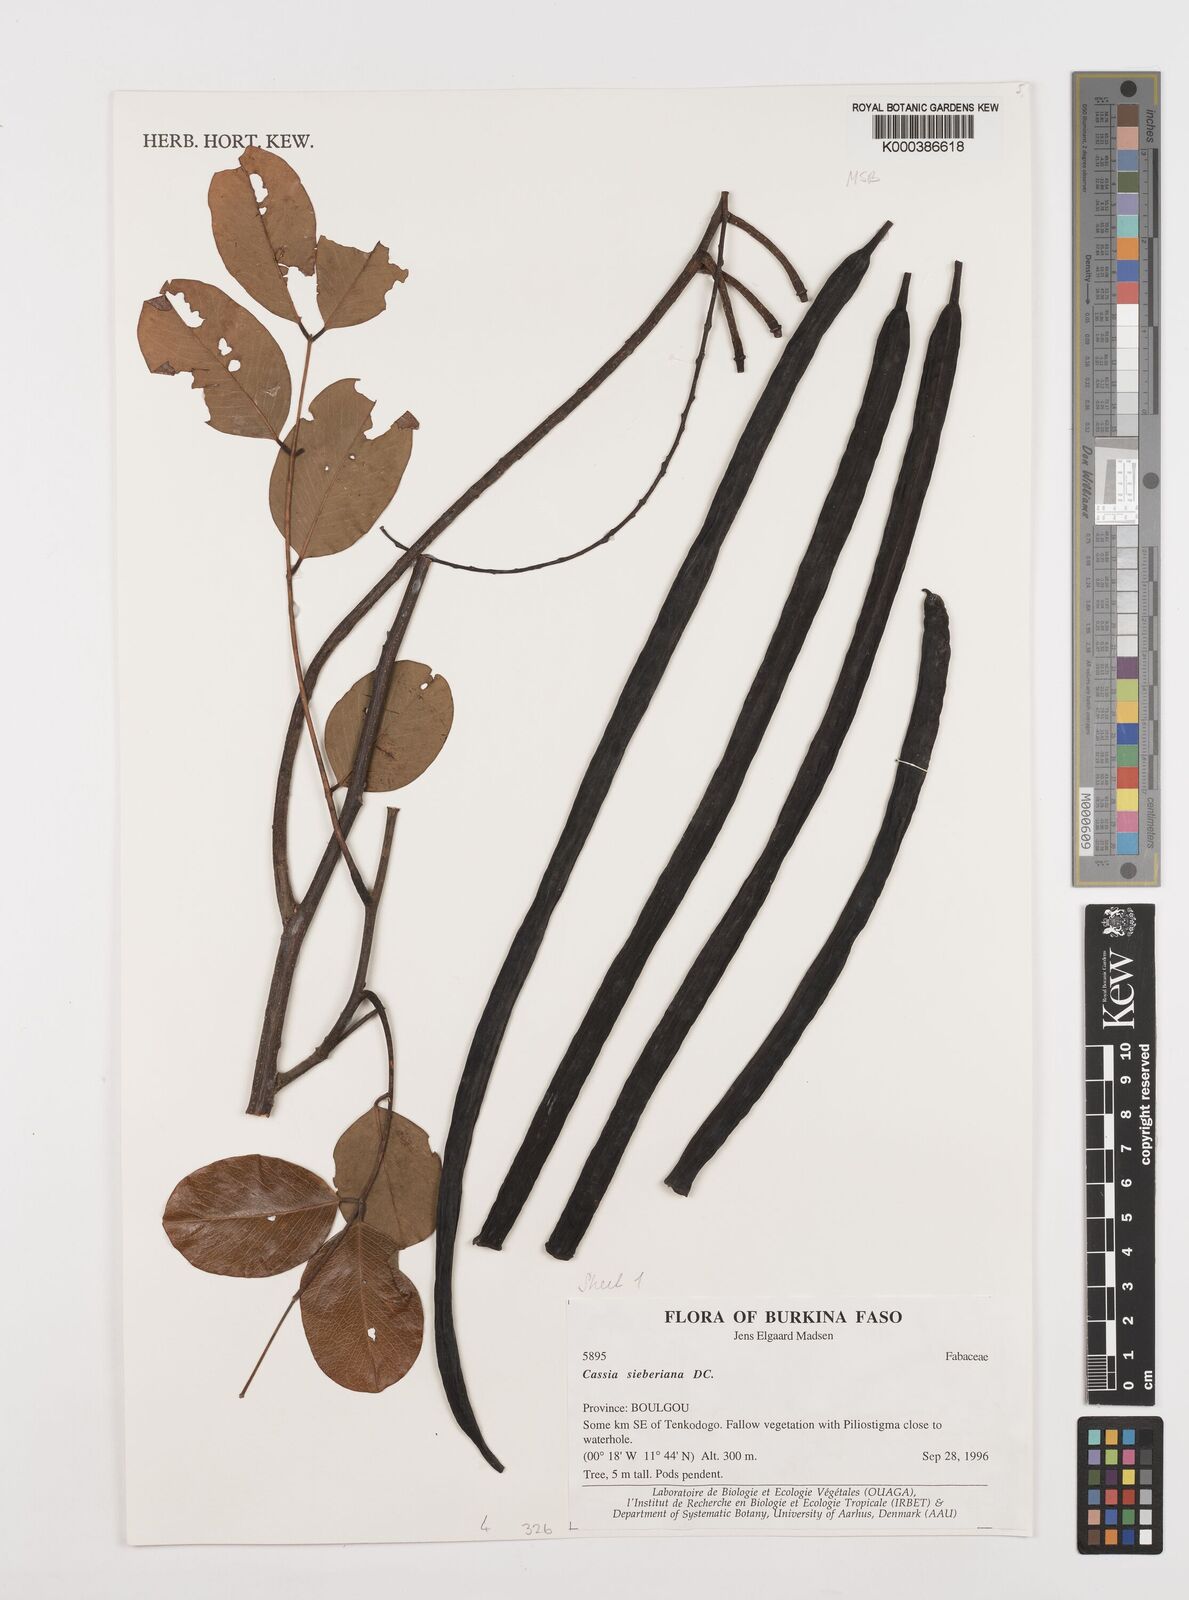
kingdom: Plantae
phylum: Tracheophyta
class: Magnoliopsida
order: Fabales
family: Fabaceae
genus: Cassia
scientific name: Cassia sieberiana
